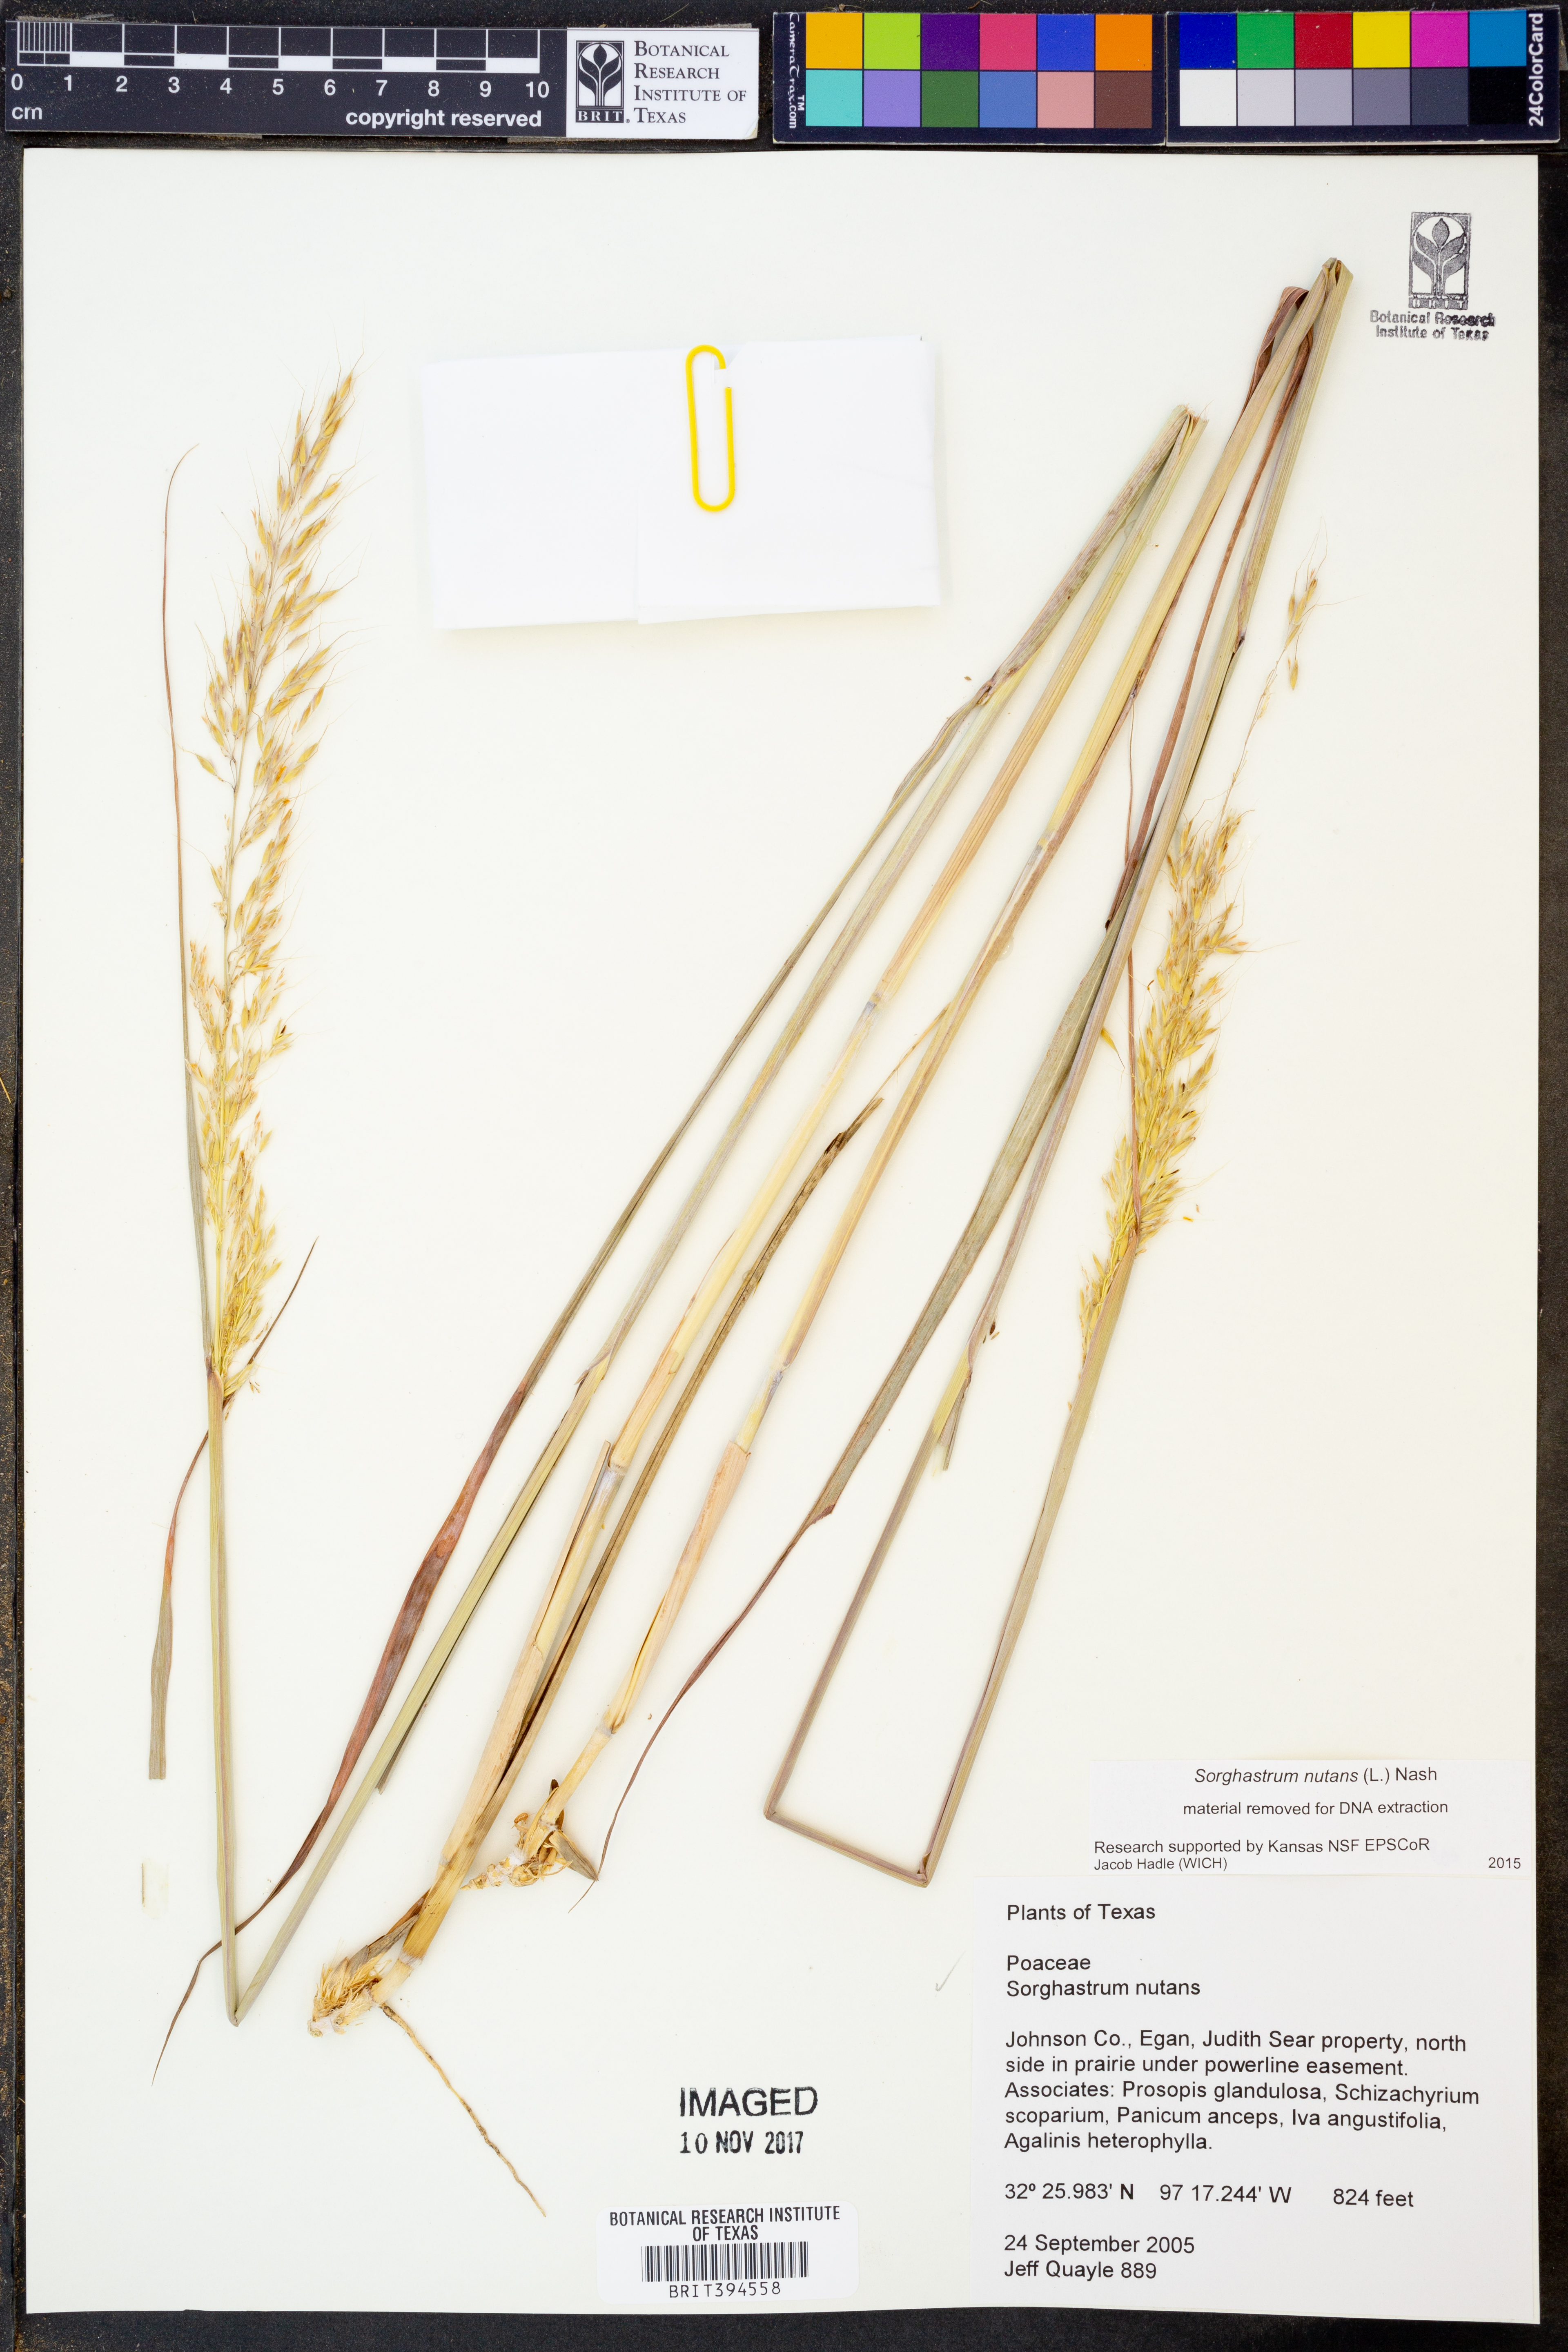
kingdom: Plantae
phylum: Tracheophyta
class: Liliopsida
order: Poales
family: Poaceae
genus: Sorghastrum
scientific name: Sorghastrum nutans
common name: Indian grass
